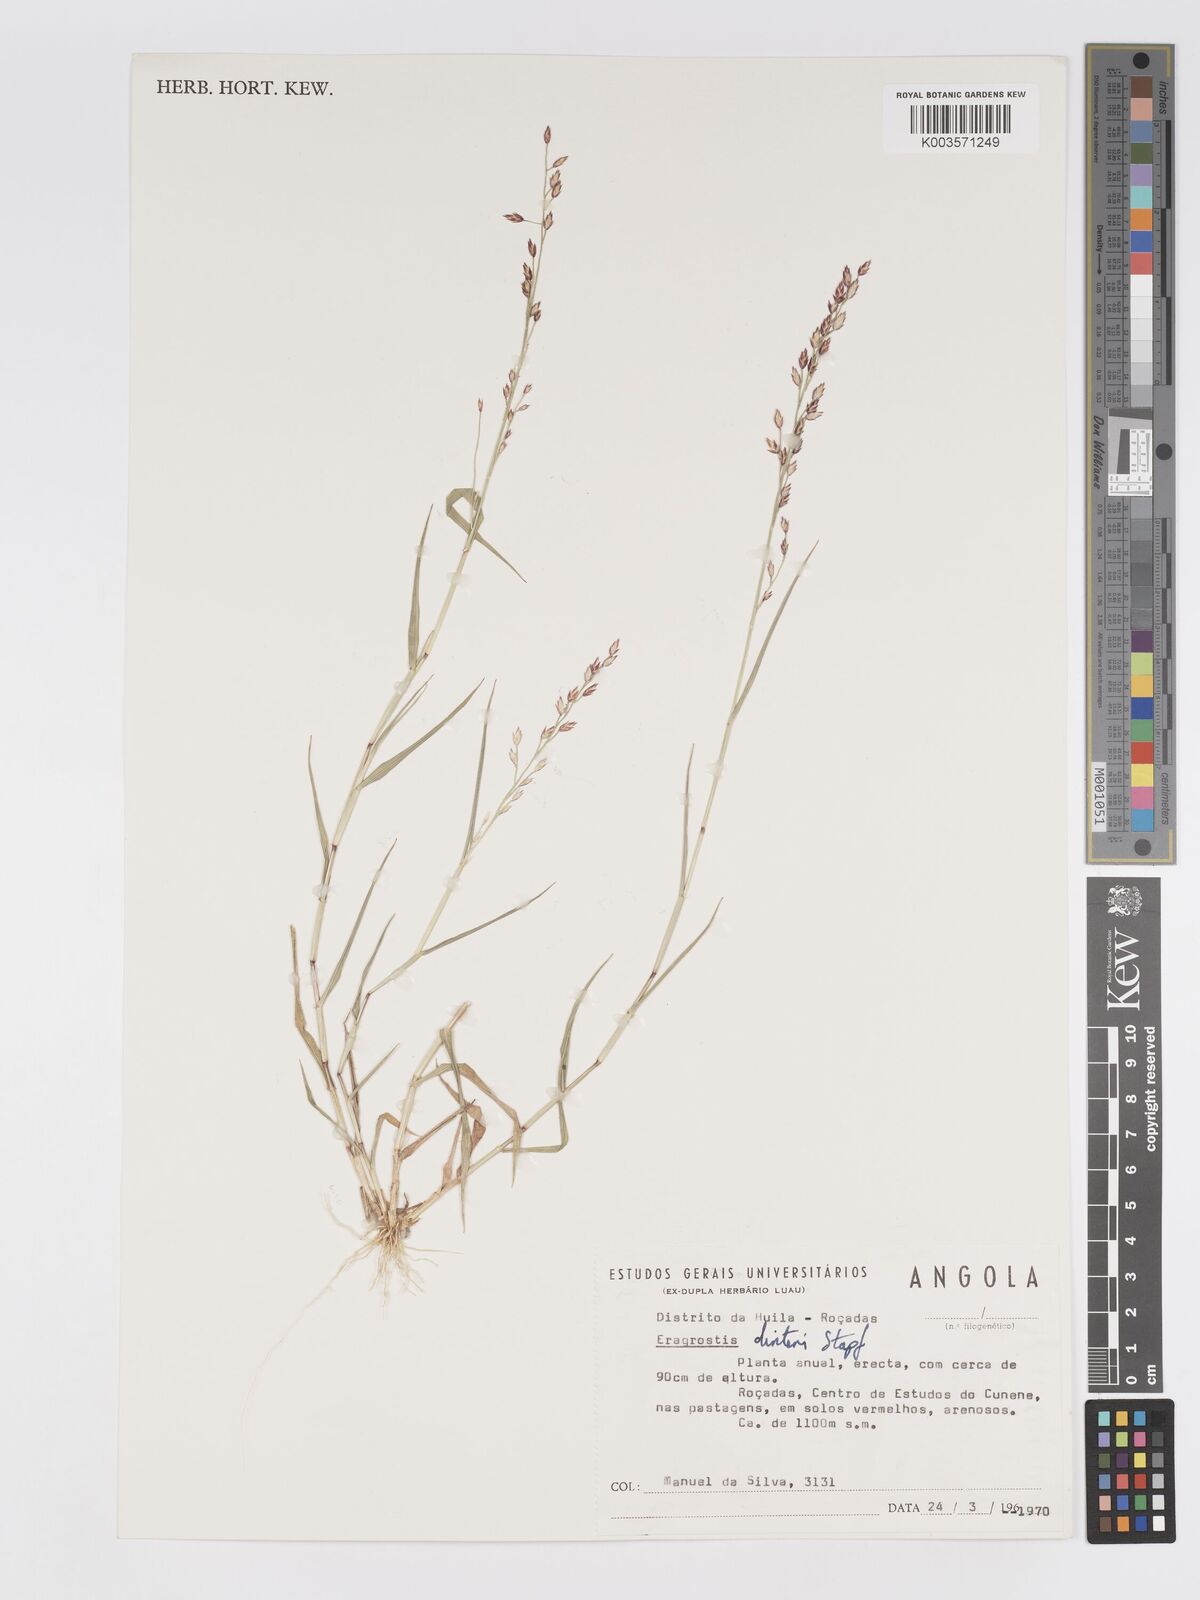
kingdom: Plantae
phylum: Tracheophyta
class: Liliopsida
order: Poales
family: Poaceae
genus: Eragrostis
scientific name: Eragrostis variegata
